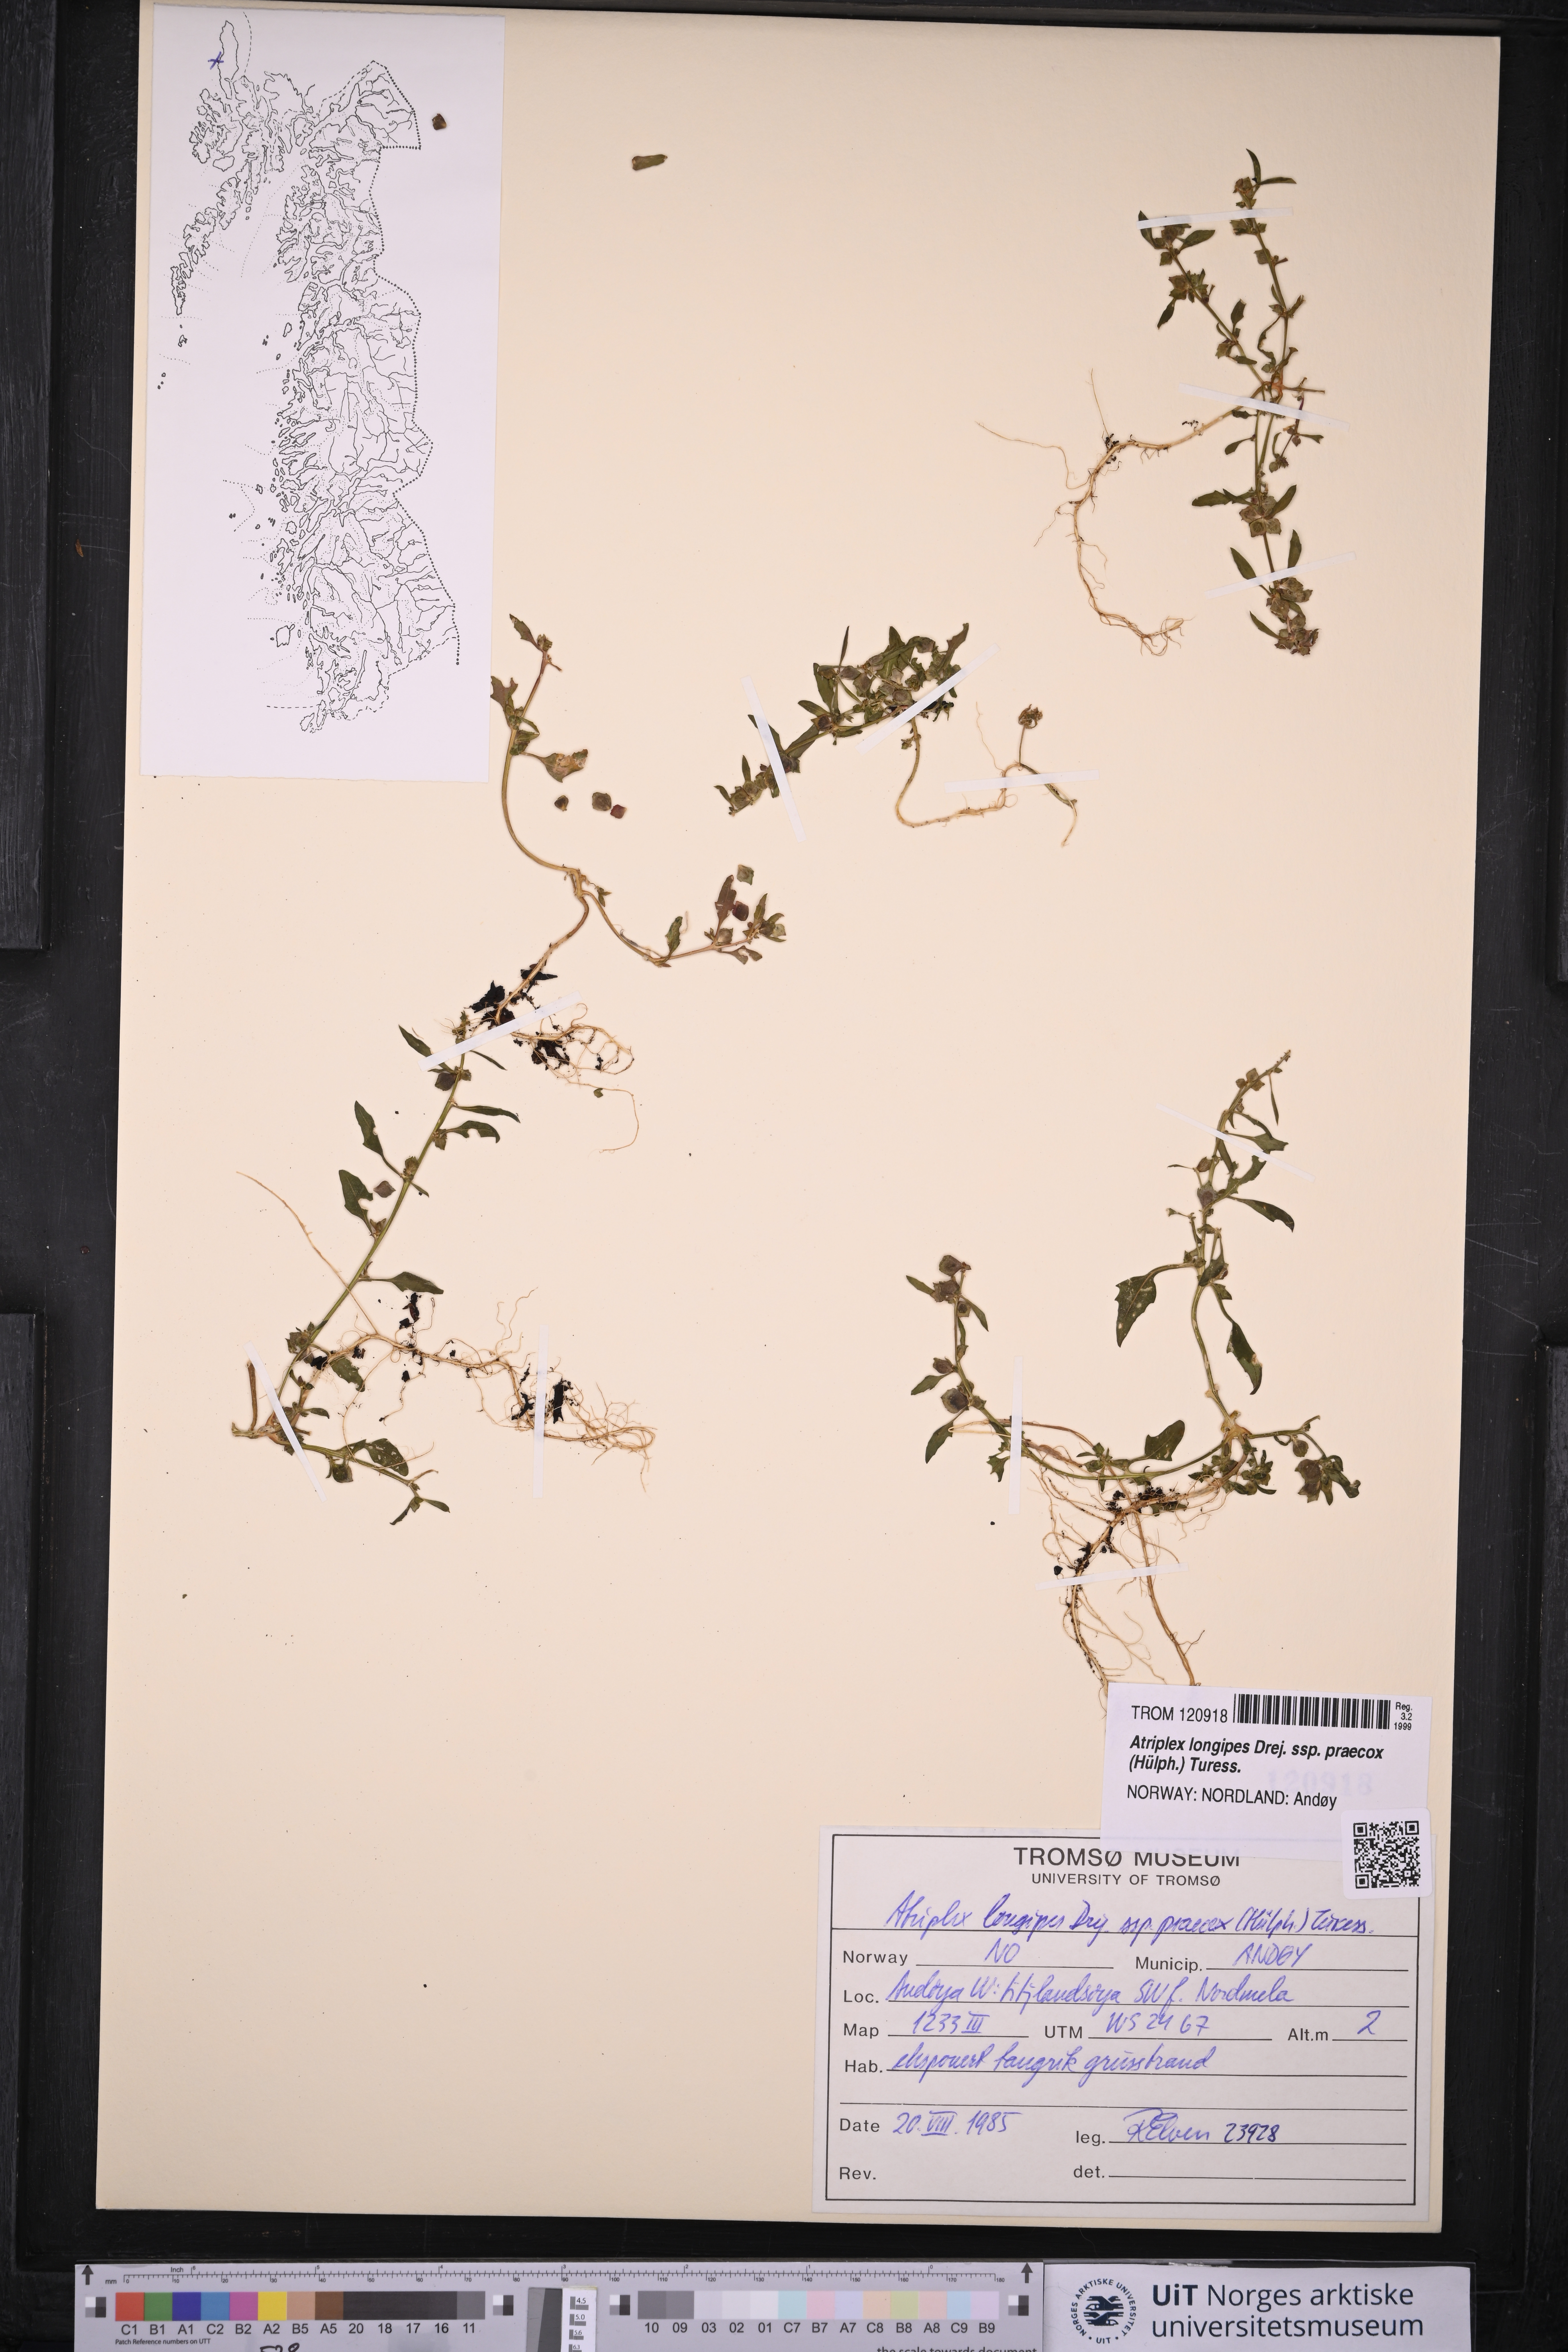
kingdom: Plantae
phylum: Tracheophyta
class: Magnoliopsida
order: Caryophyllales
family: Amaranthaceae
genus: Atriplex
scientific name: Atriplex praecox
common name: Early orache
